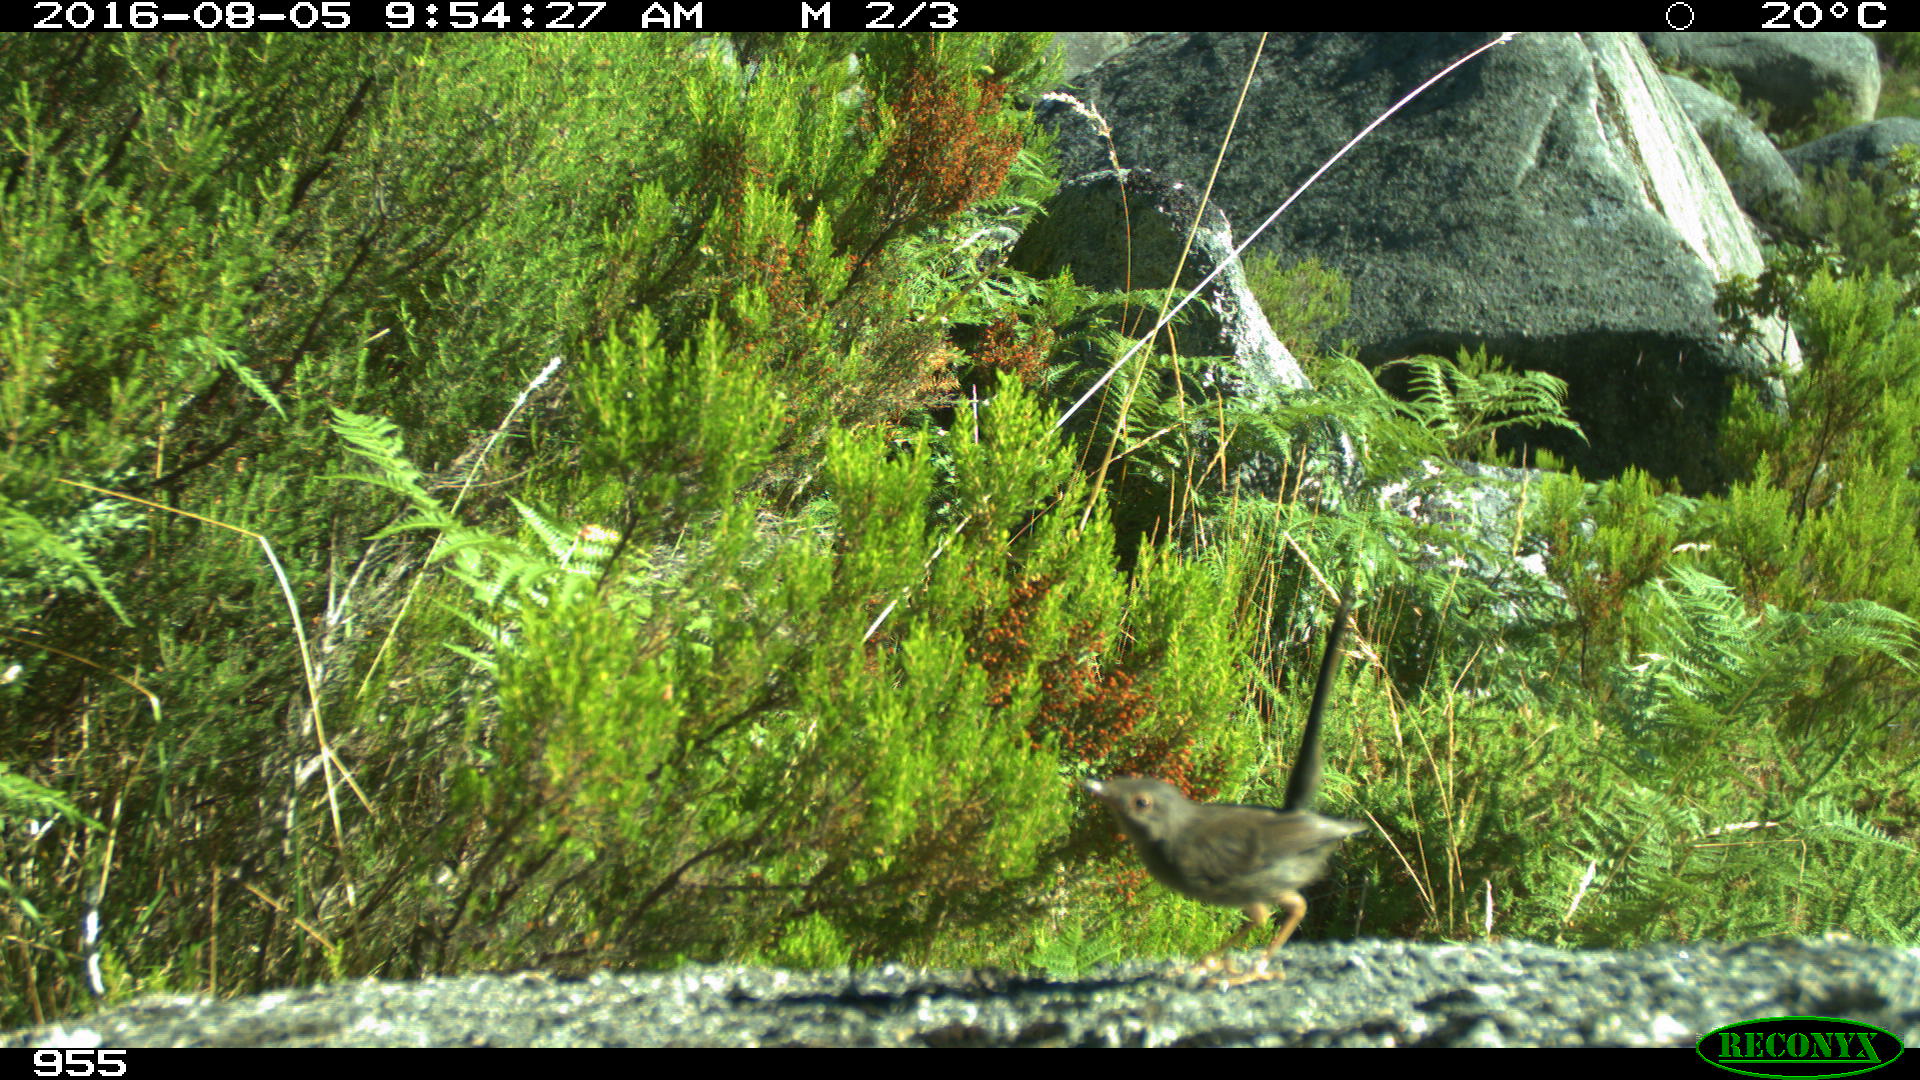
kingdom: Animalia
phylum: Chordata
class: Aves
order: Passeriformes
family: Sylviidae
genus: Sylvia
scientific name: Sylvia undata
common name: Dartford warbler
